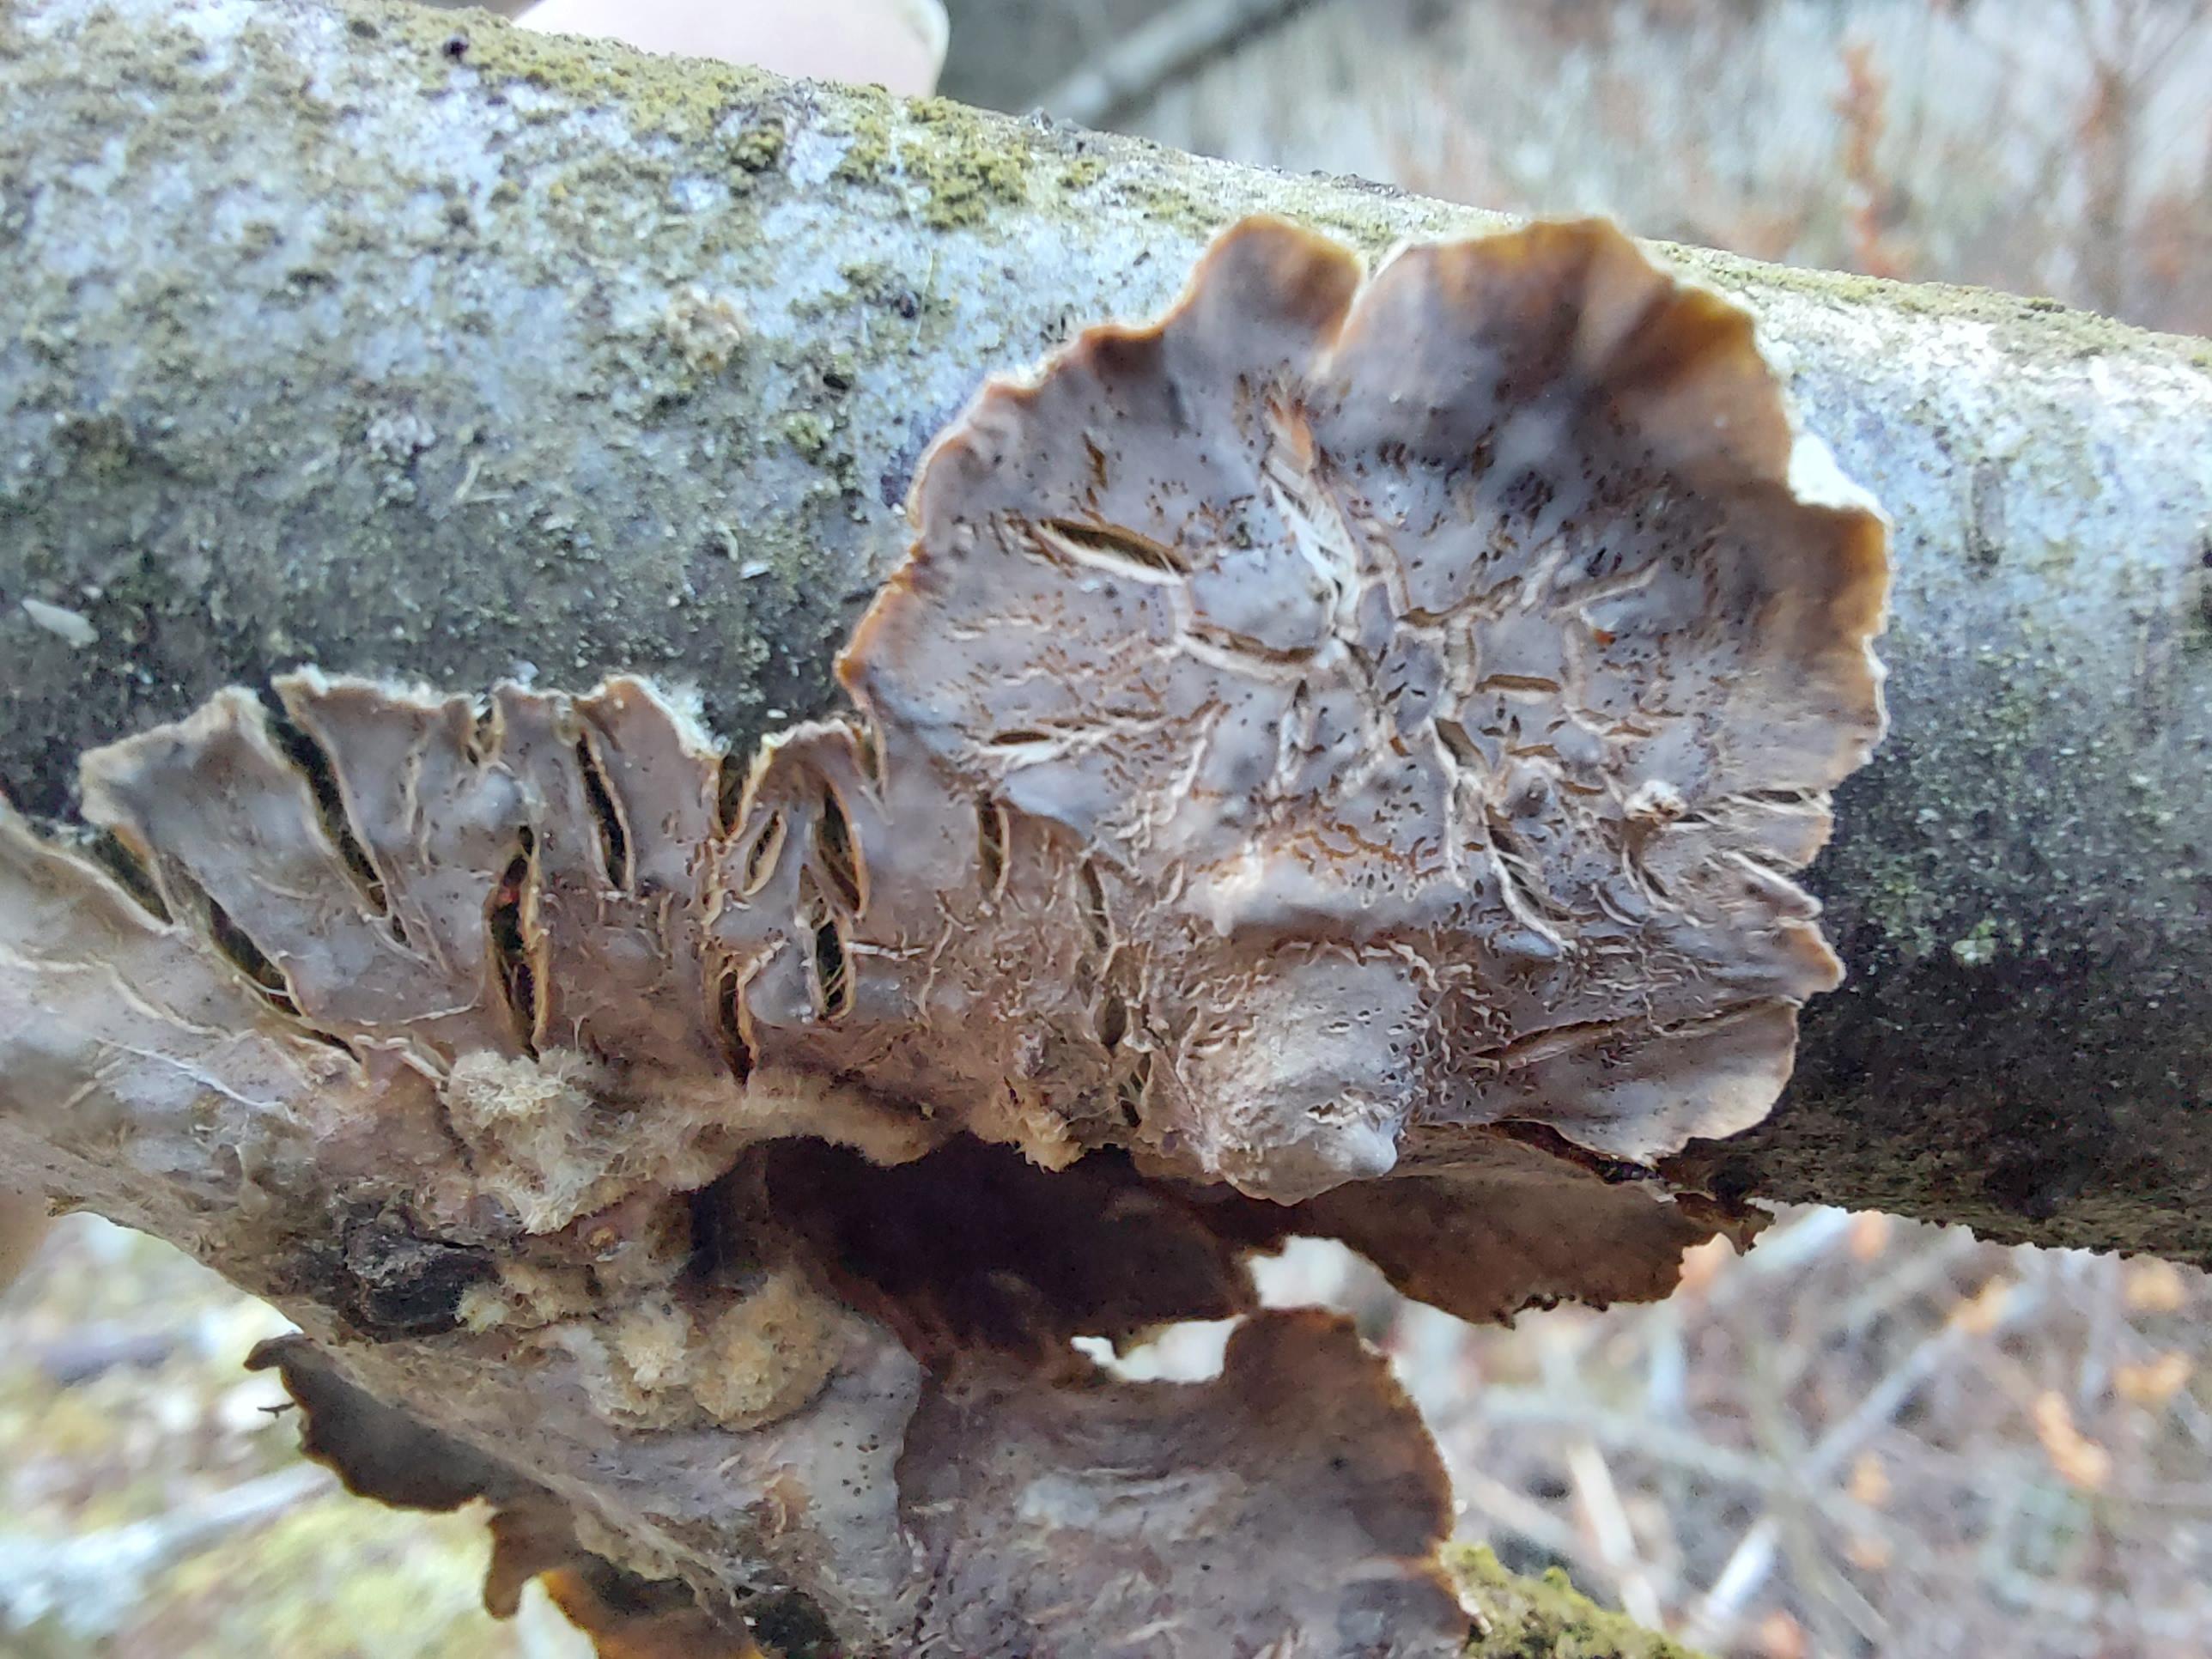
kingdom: Fungi
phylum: Basidiomycota
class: Agaricomycetes
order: Russulales
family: Stereaceae
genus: Stereum
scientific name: Stereum hirsutum
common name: håret lædersvamp
